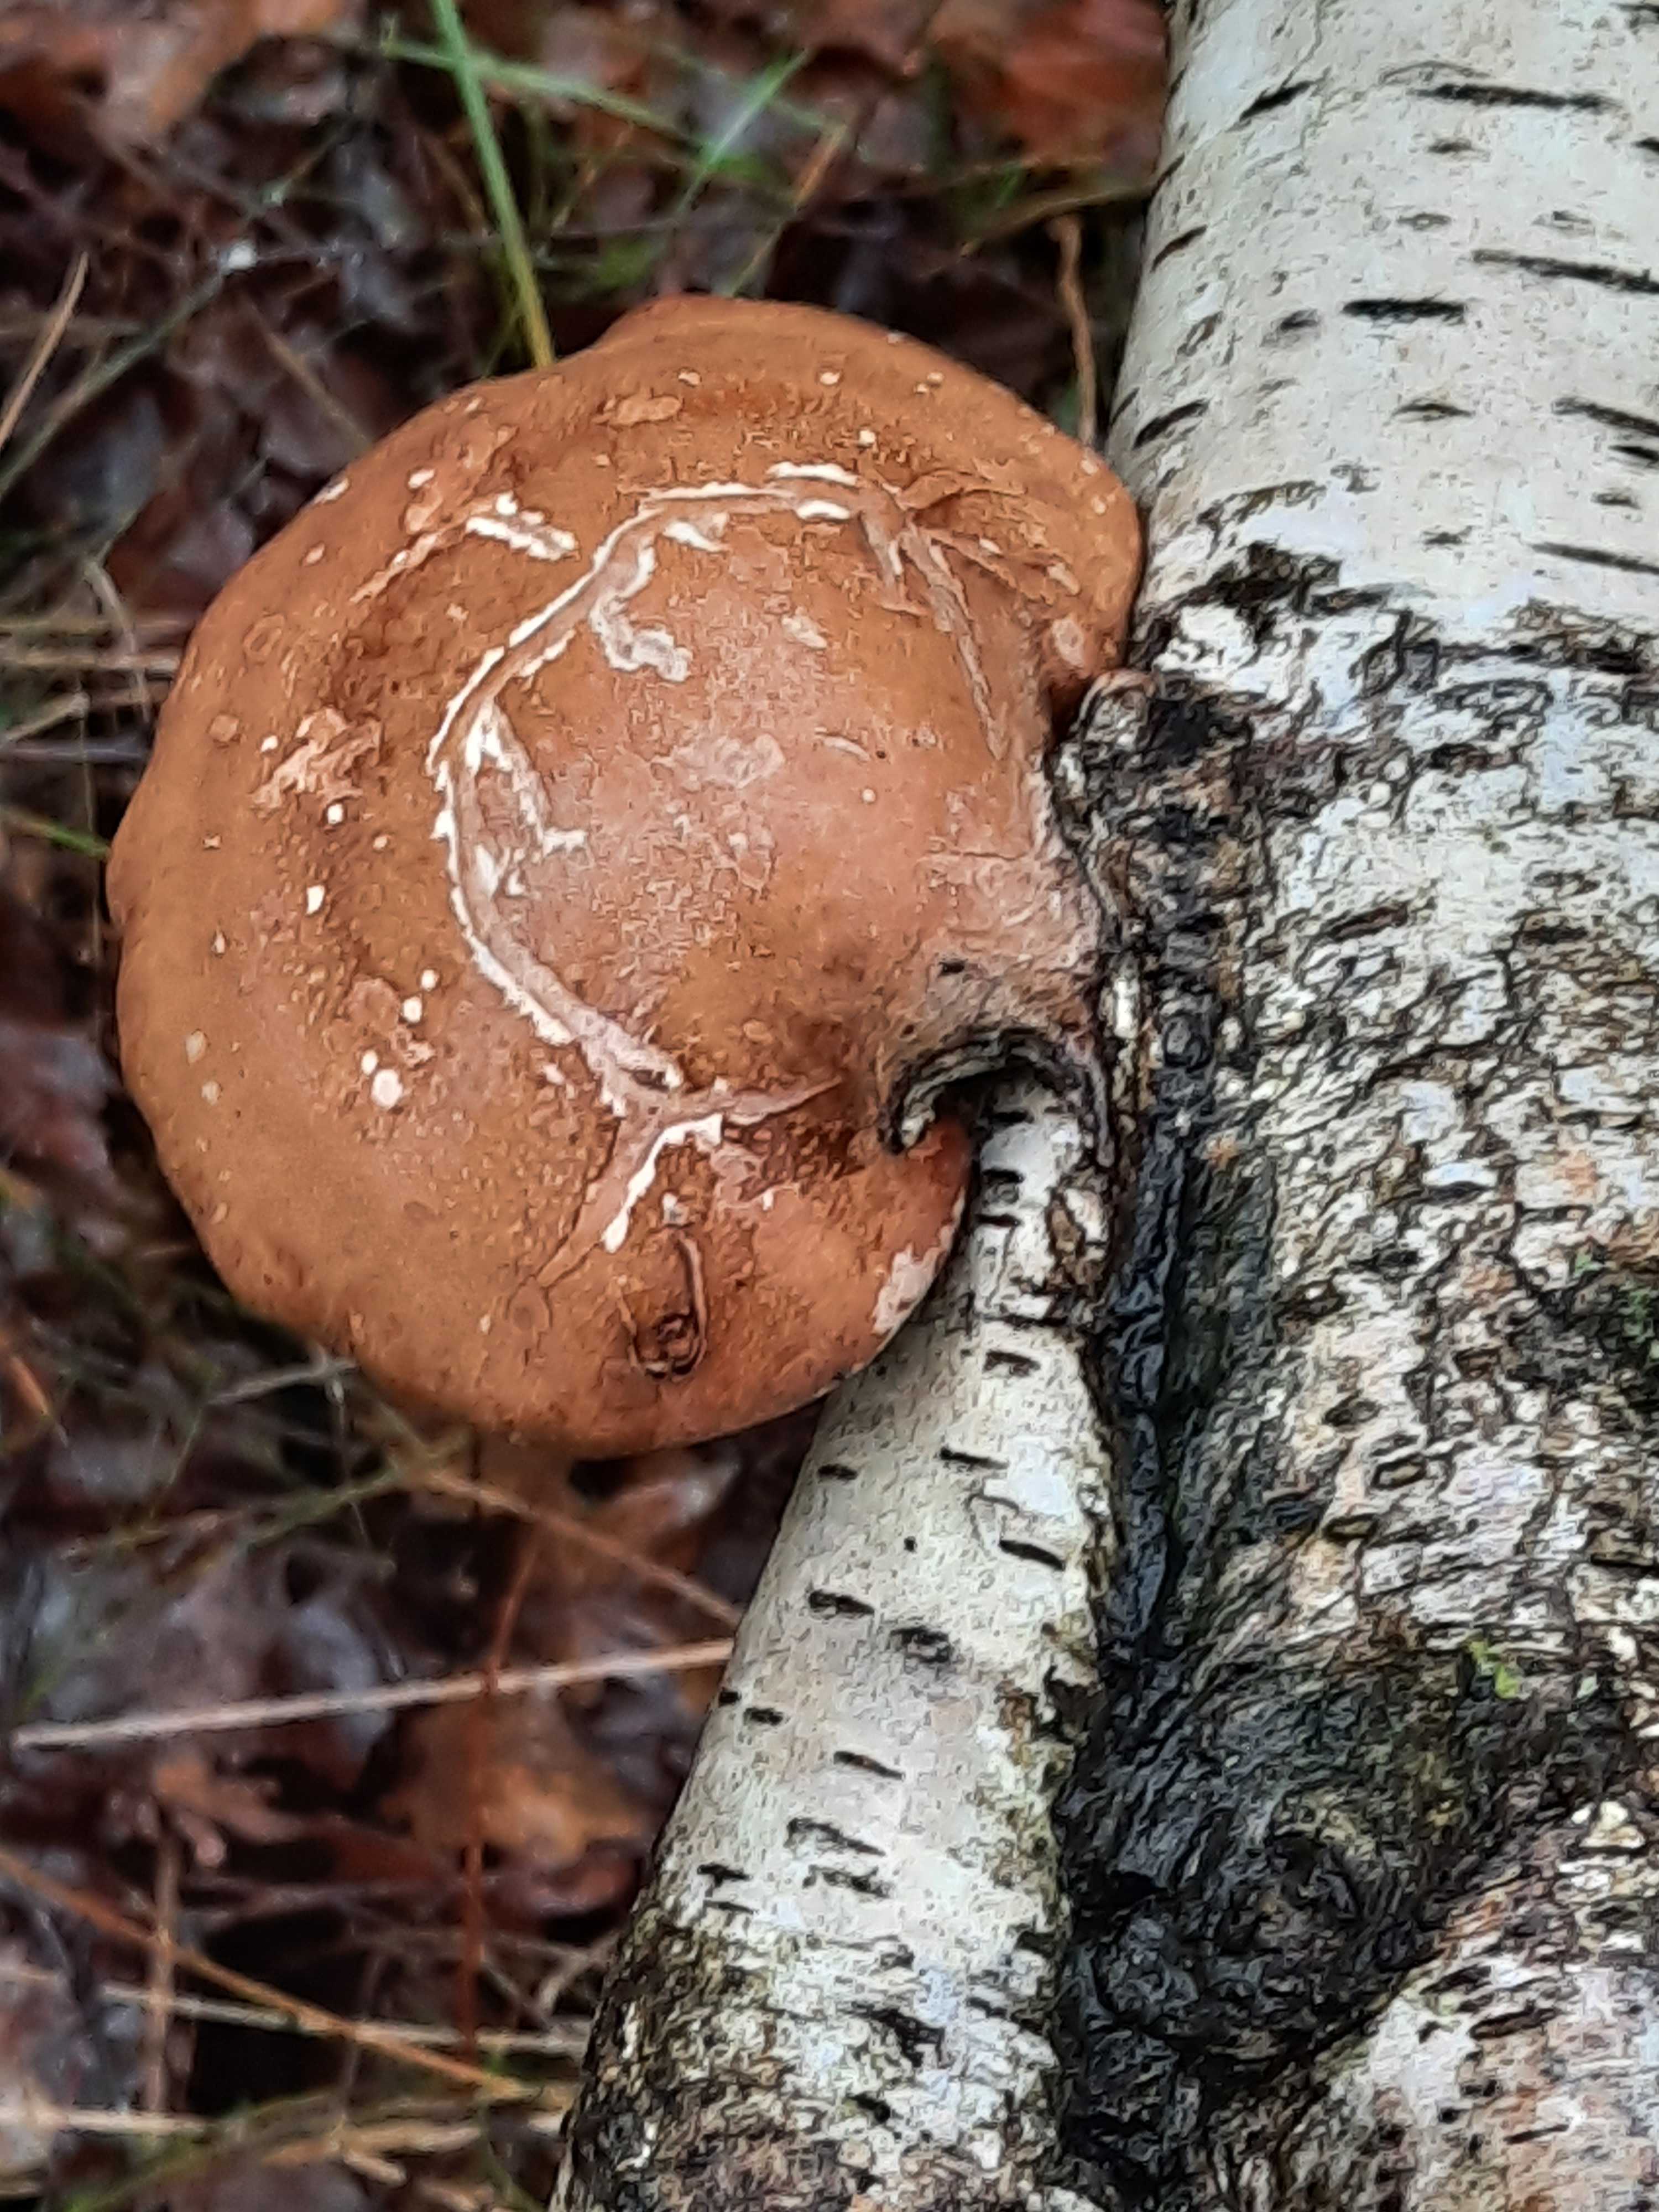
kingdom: Fungi
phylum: Basidiomycota
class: Agaricomycetes
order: Polyporales
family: Fomitopsidaceae
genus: Fomitopsis
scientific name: Fomitopsis betulina
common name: birkeporesvamp
